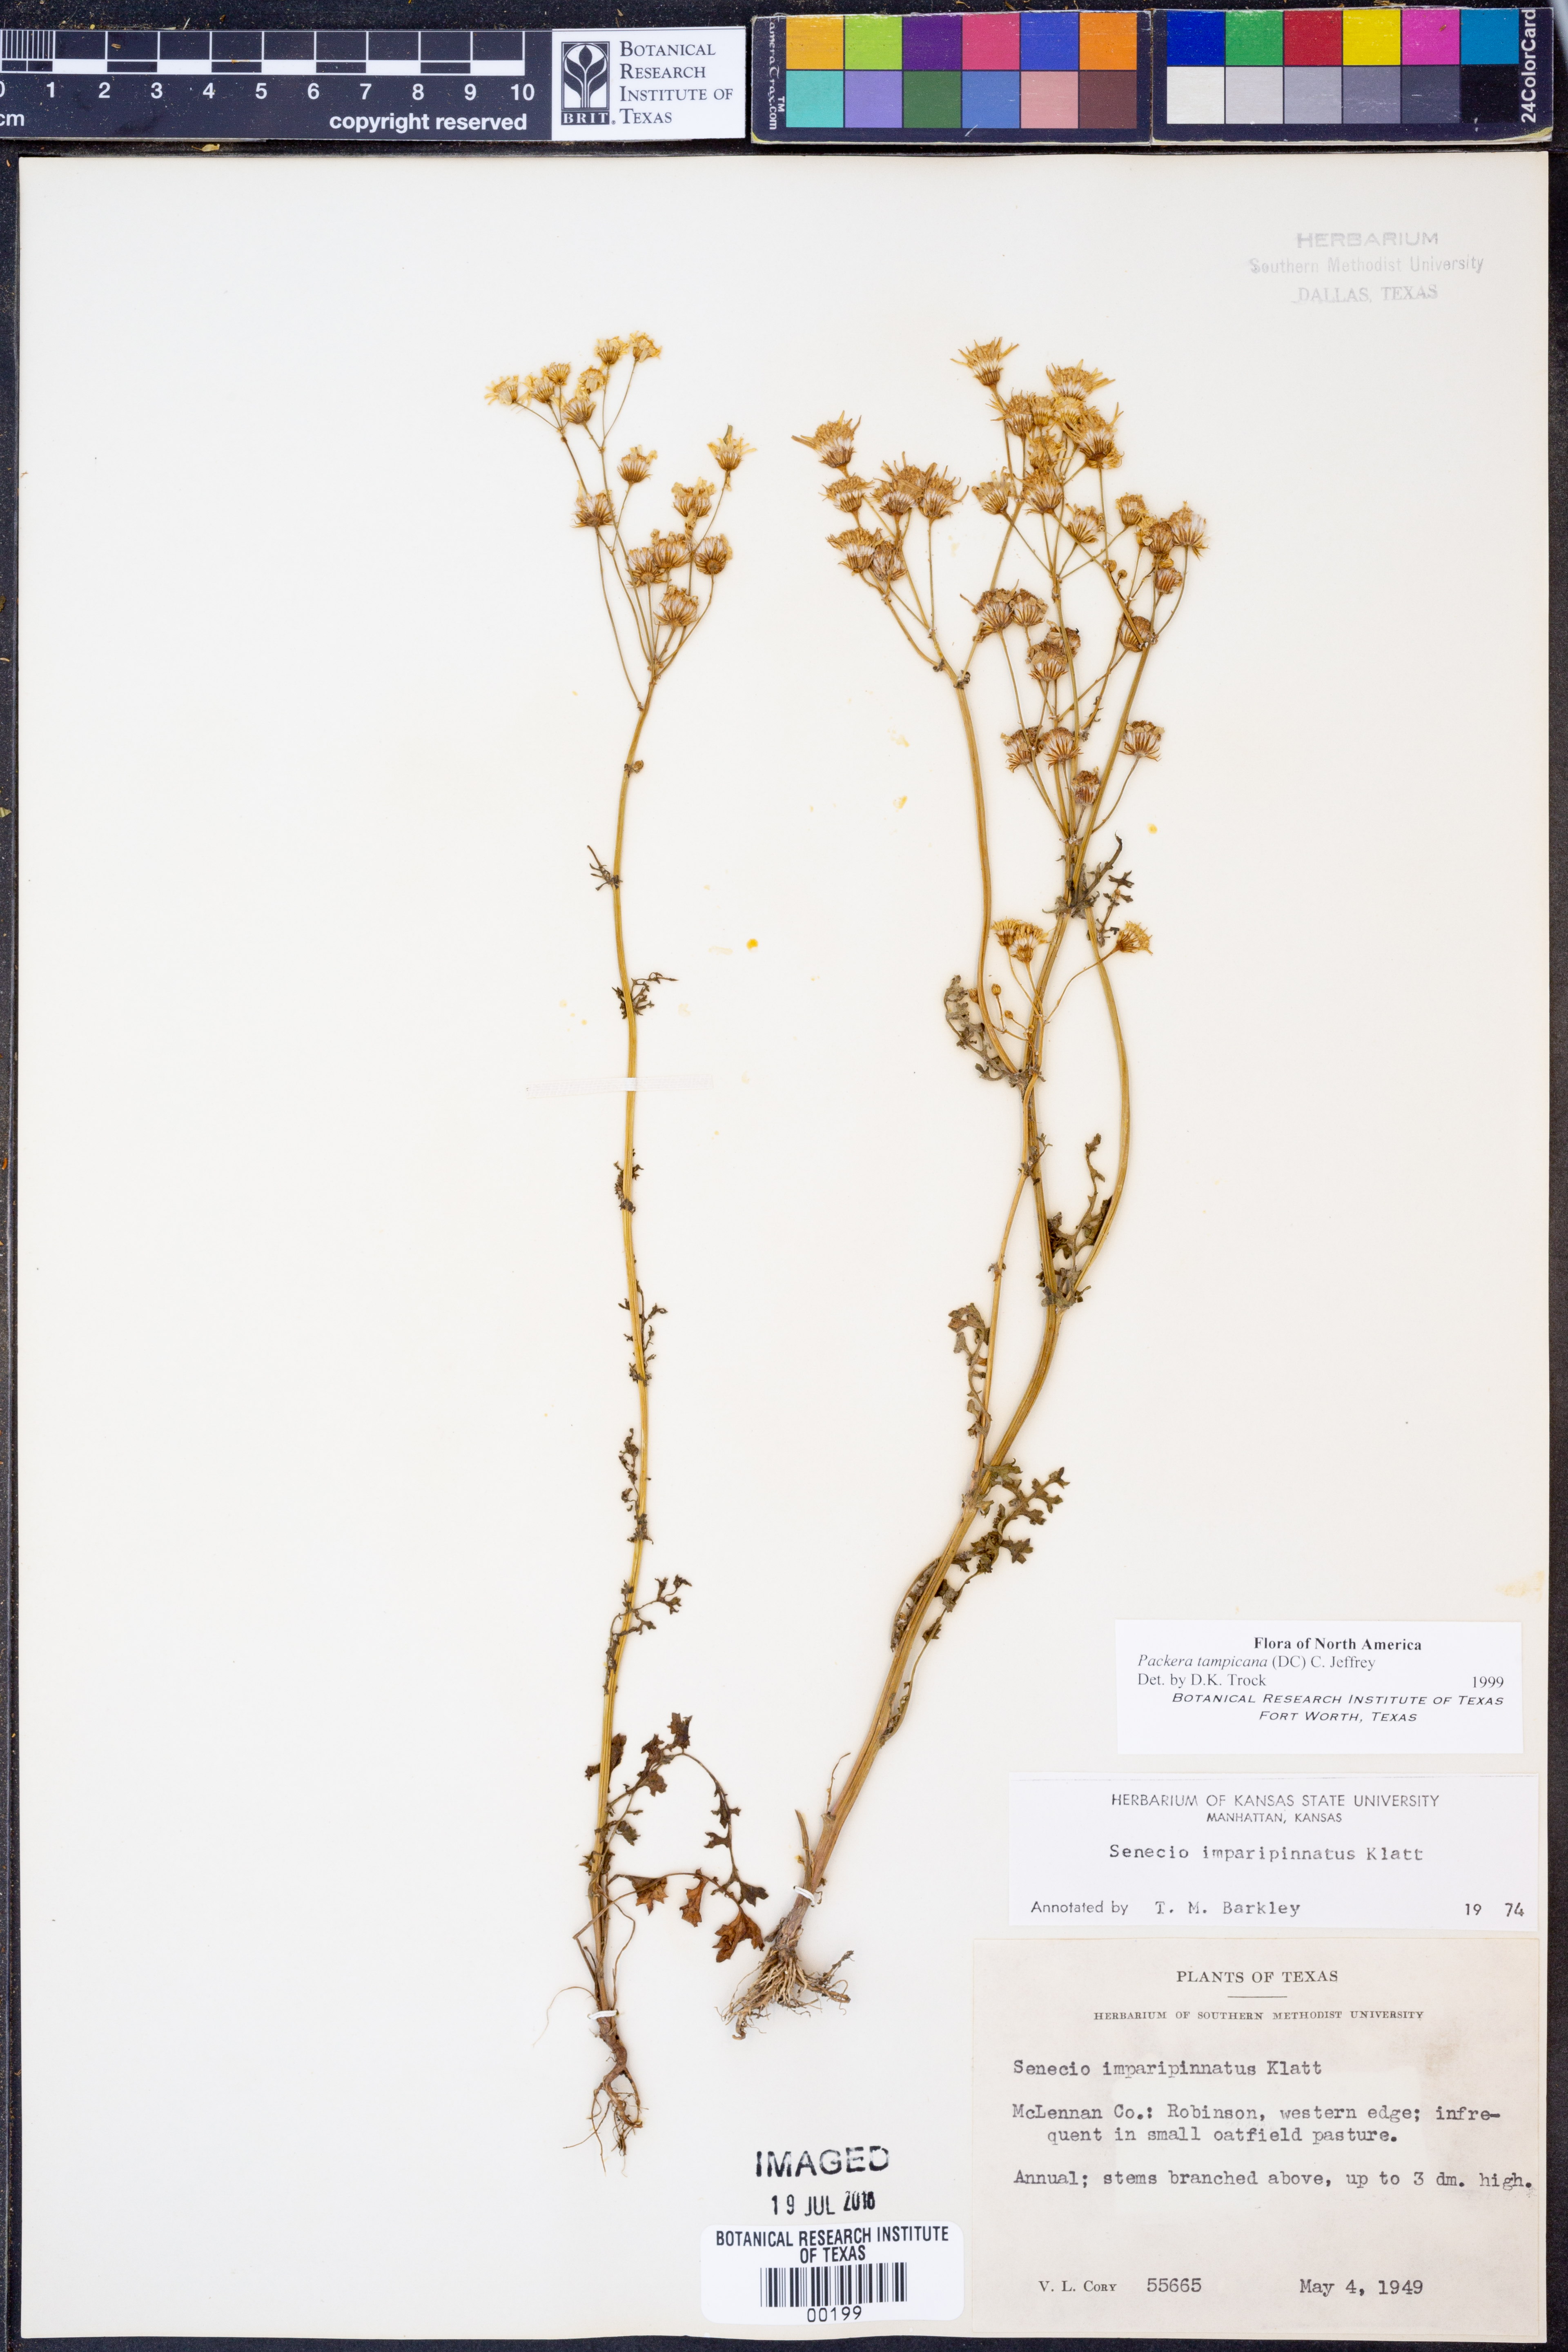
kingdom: Plantae
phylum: Tracheophyta
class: Magnoliopsida
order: Asterales
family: Asteraceae
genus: Packera
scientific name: Packera tampicana
